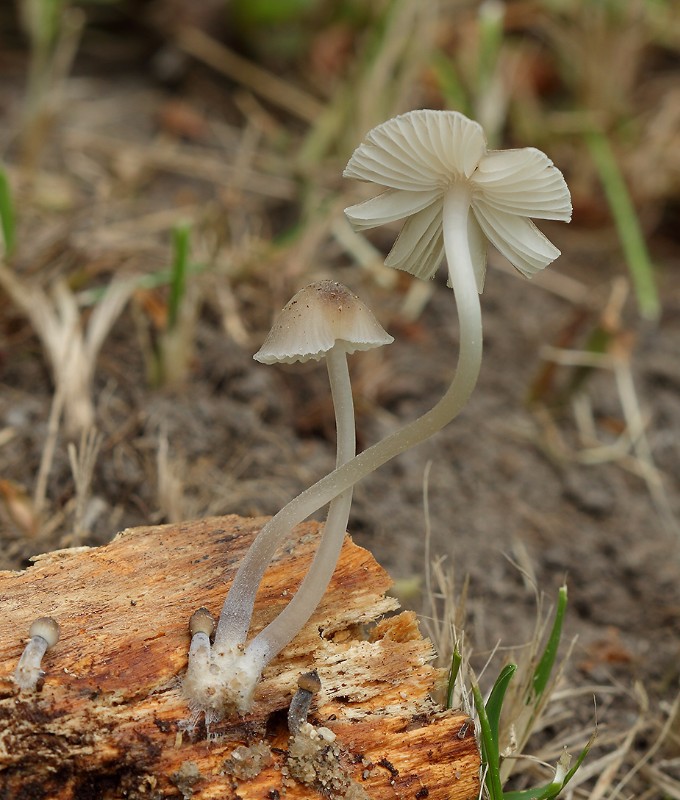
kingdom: Fungi
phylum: Basidiomycota
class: Agaricomycetes
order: Agaricales
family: Mycenaceae
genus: Mycena
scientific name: Mycena abramsii
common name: sommer-huesvamp
